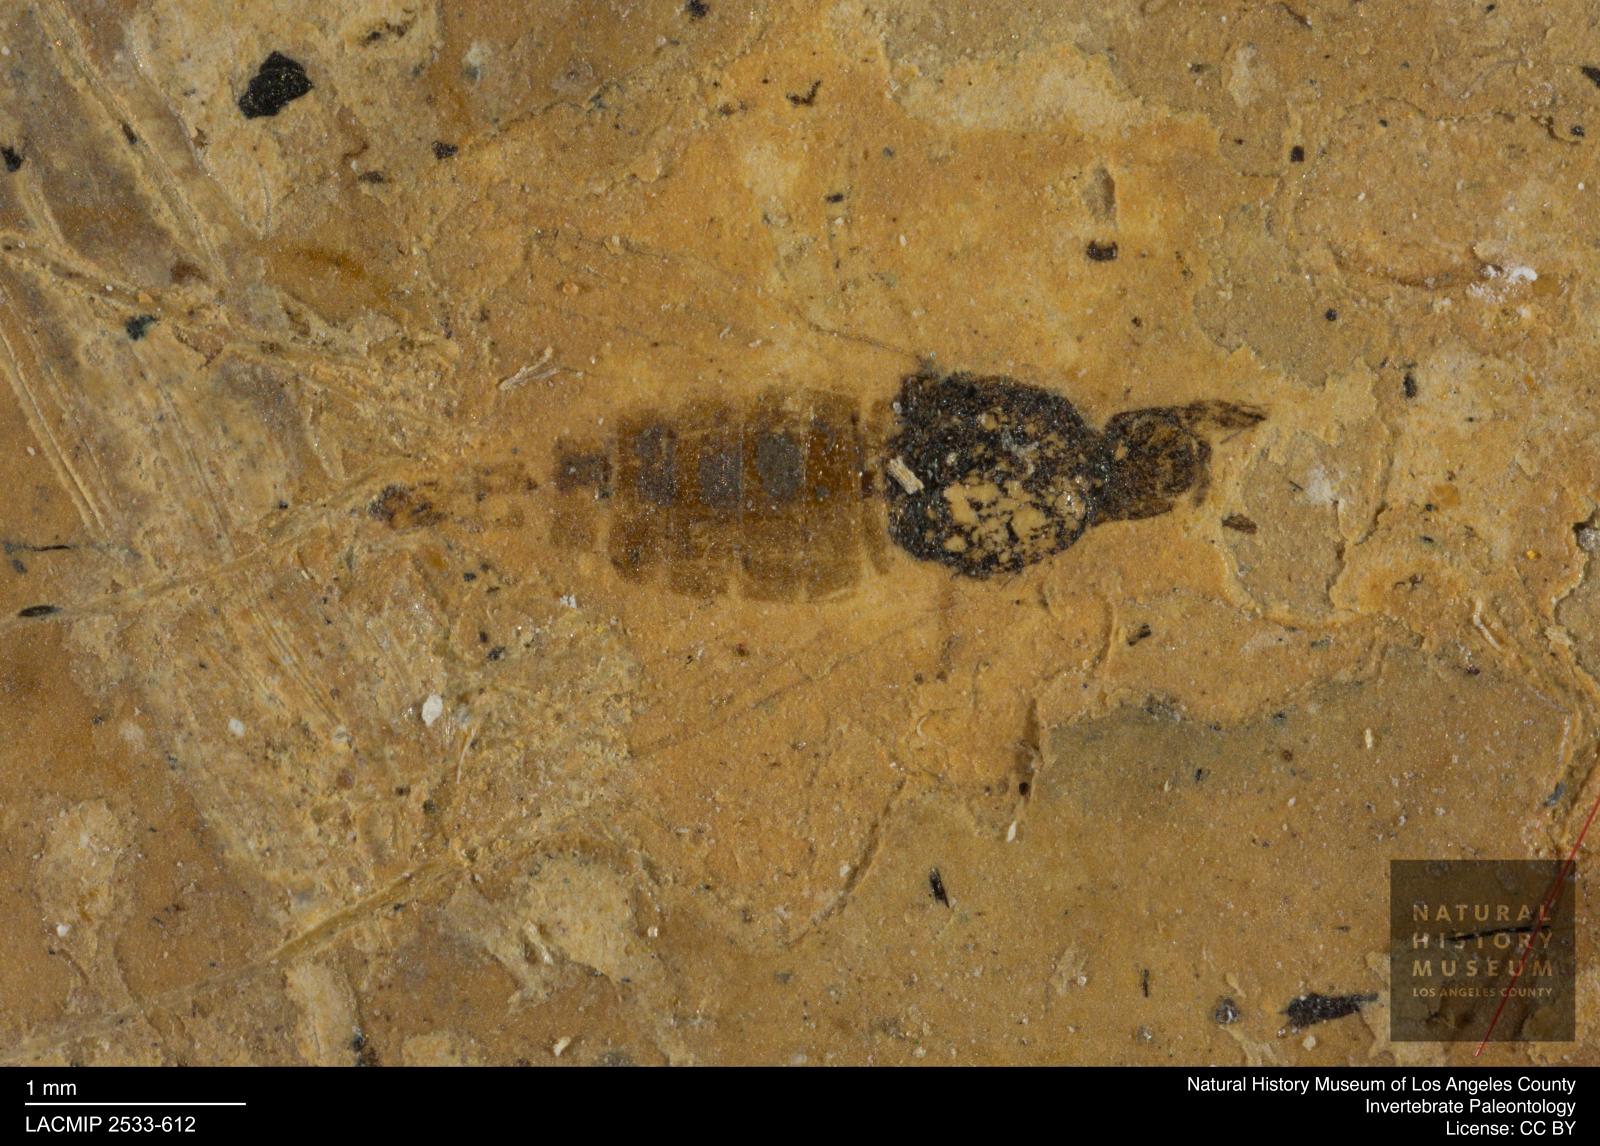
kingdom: Animalia
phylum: Arthropoda
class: Insecta
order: Diptera
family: Sepsidae
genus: Sepsis
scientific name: Sepsis ignobilis
